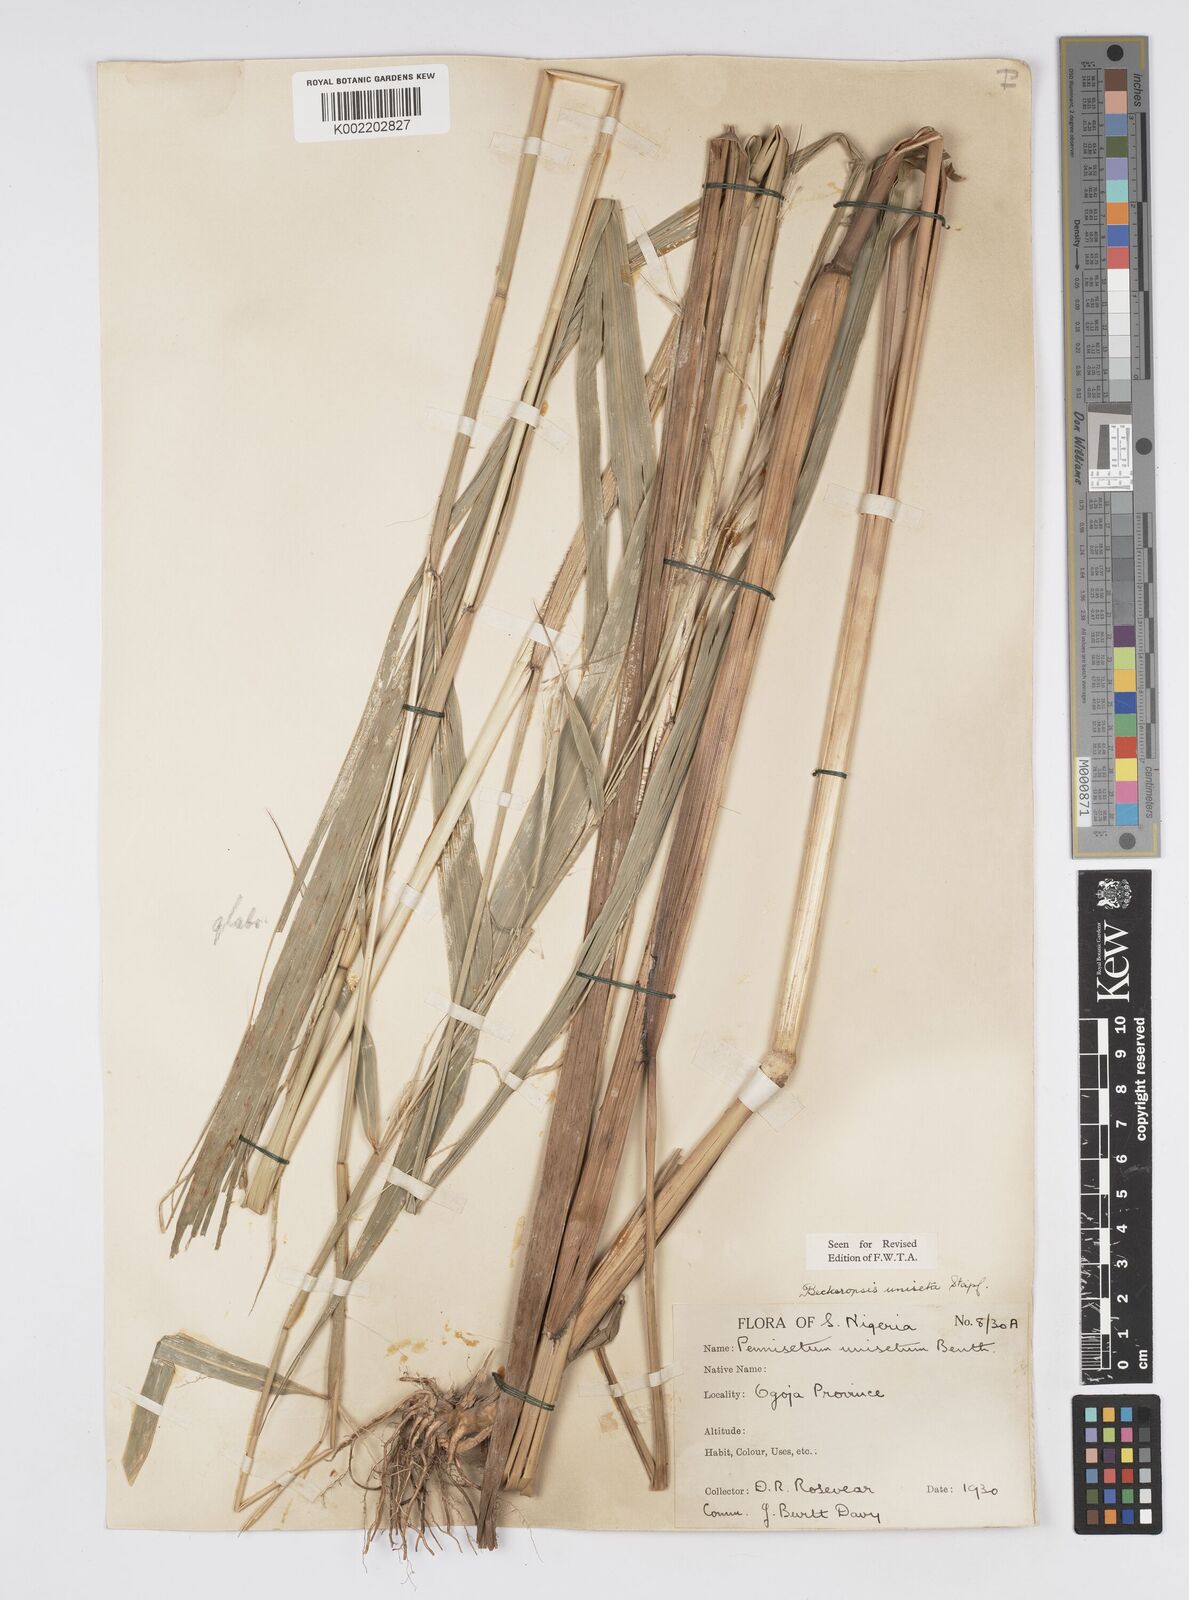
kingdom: Plantae
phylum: Tracheophyta
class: Liliopsida
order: Poales
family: Poaceae
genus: Cenchrus
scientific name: Cenchrus unisetus
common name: Natal grass
